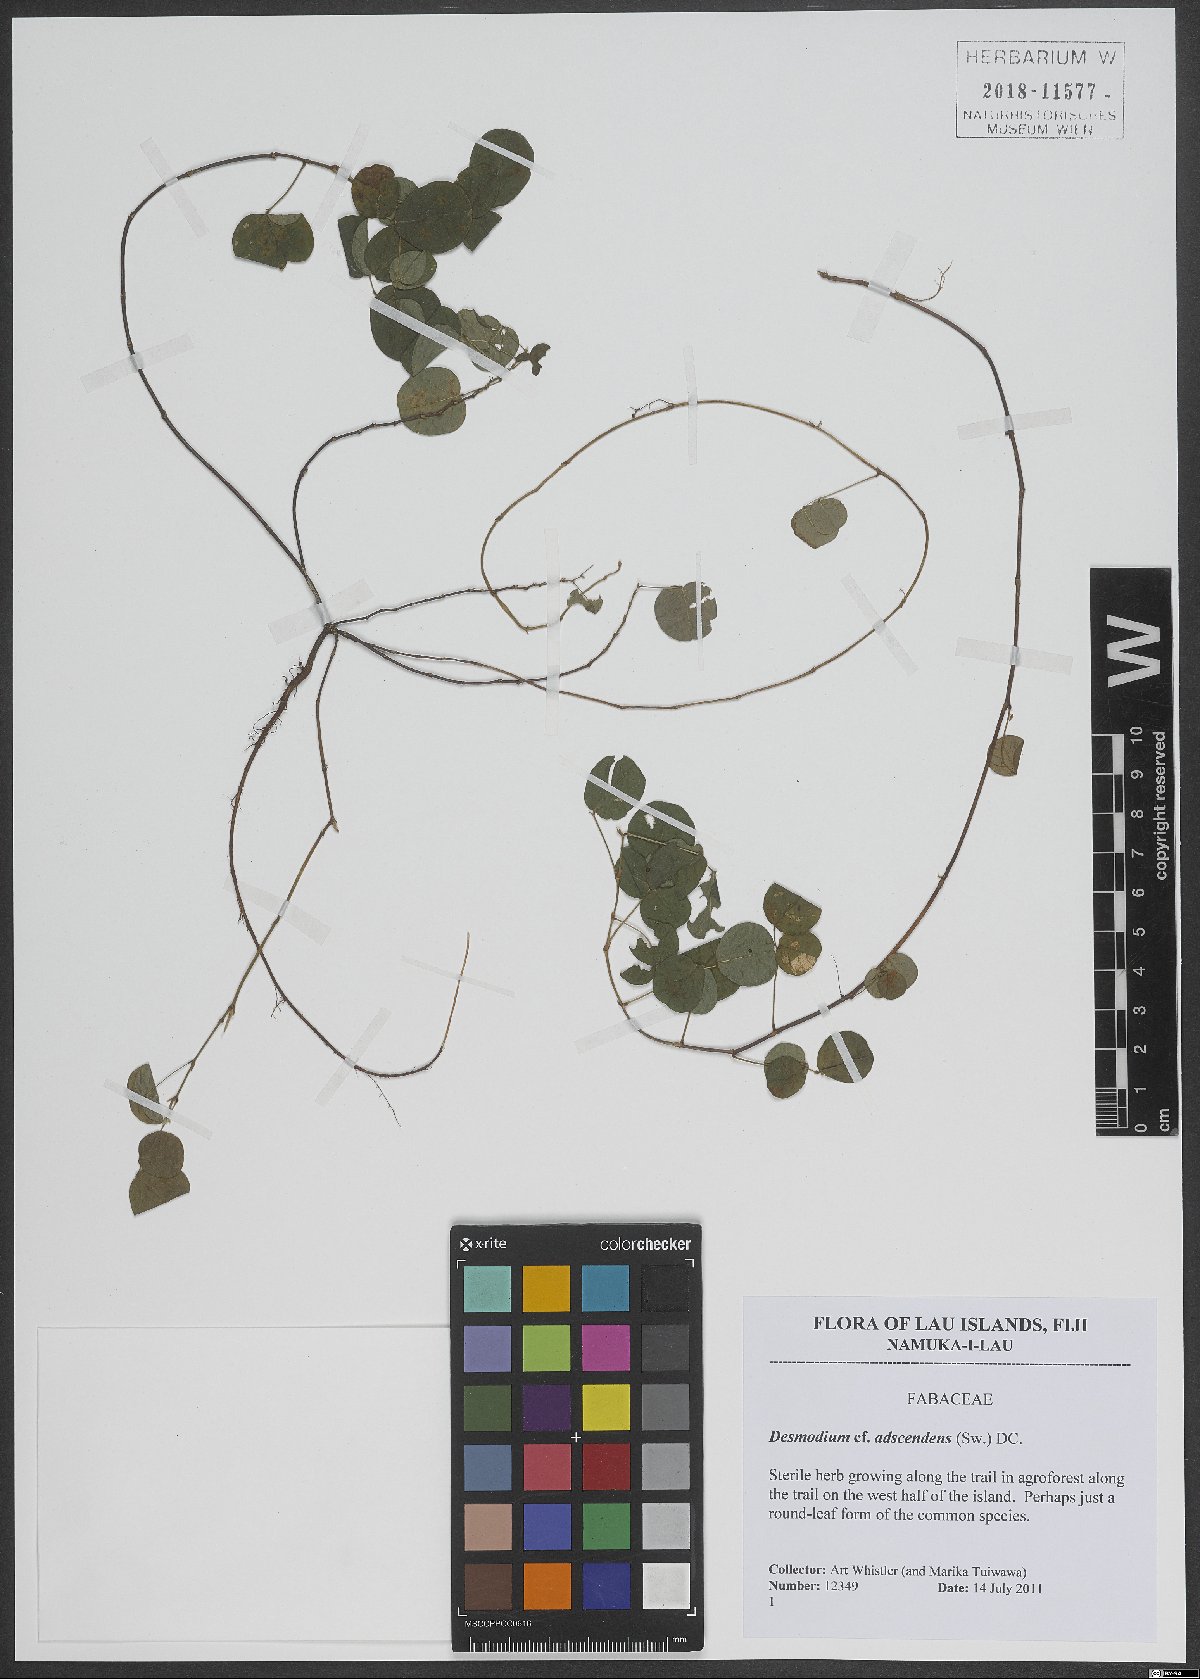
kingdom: Plantae
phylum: Tracheophyta
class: Magnoliopsida
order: Fabales
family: Fabaceae
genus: Grona
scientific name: Grona adscendens
